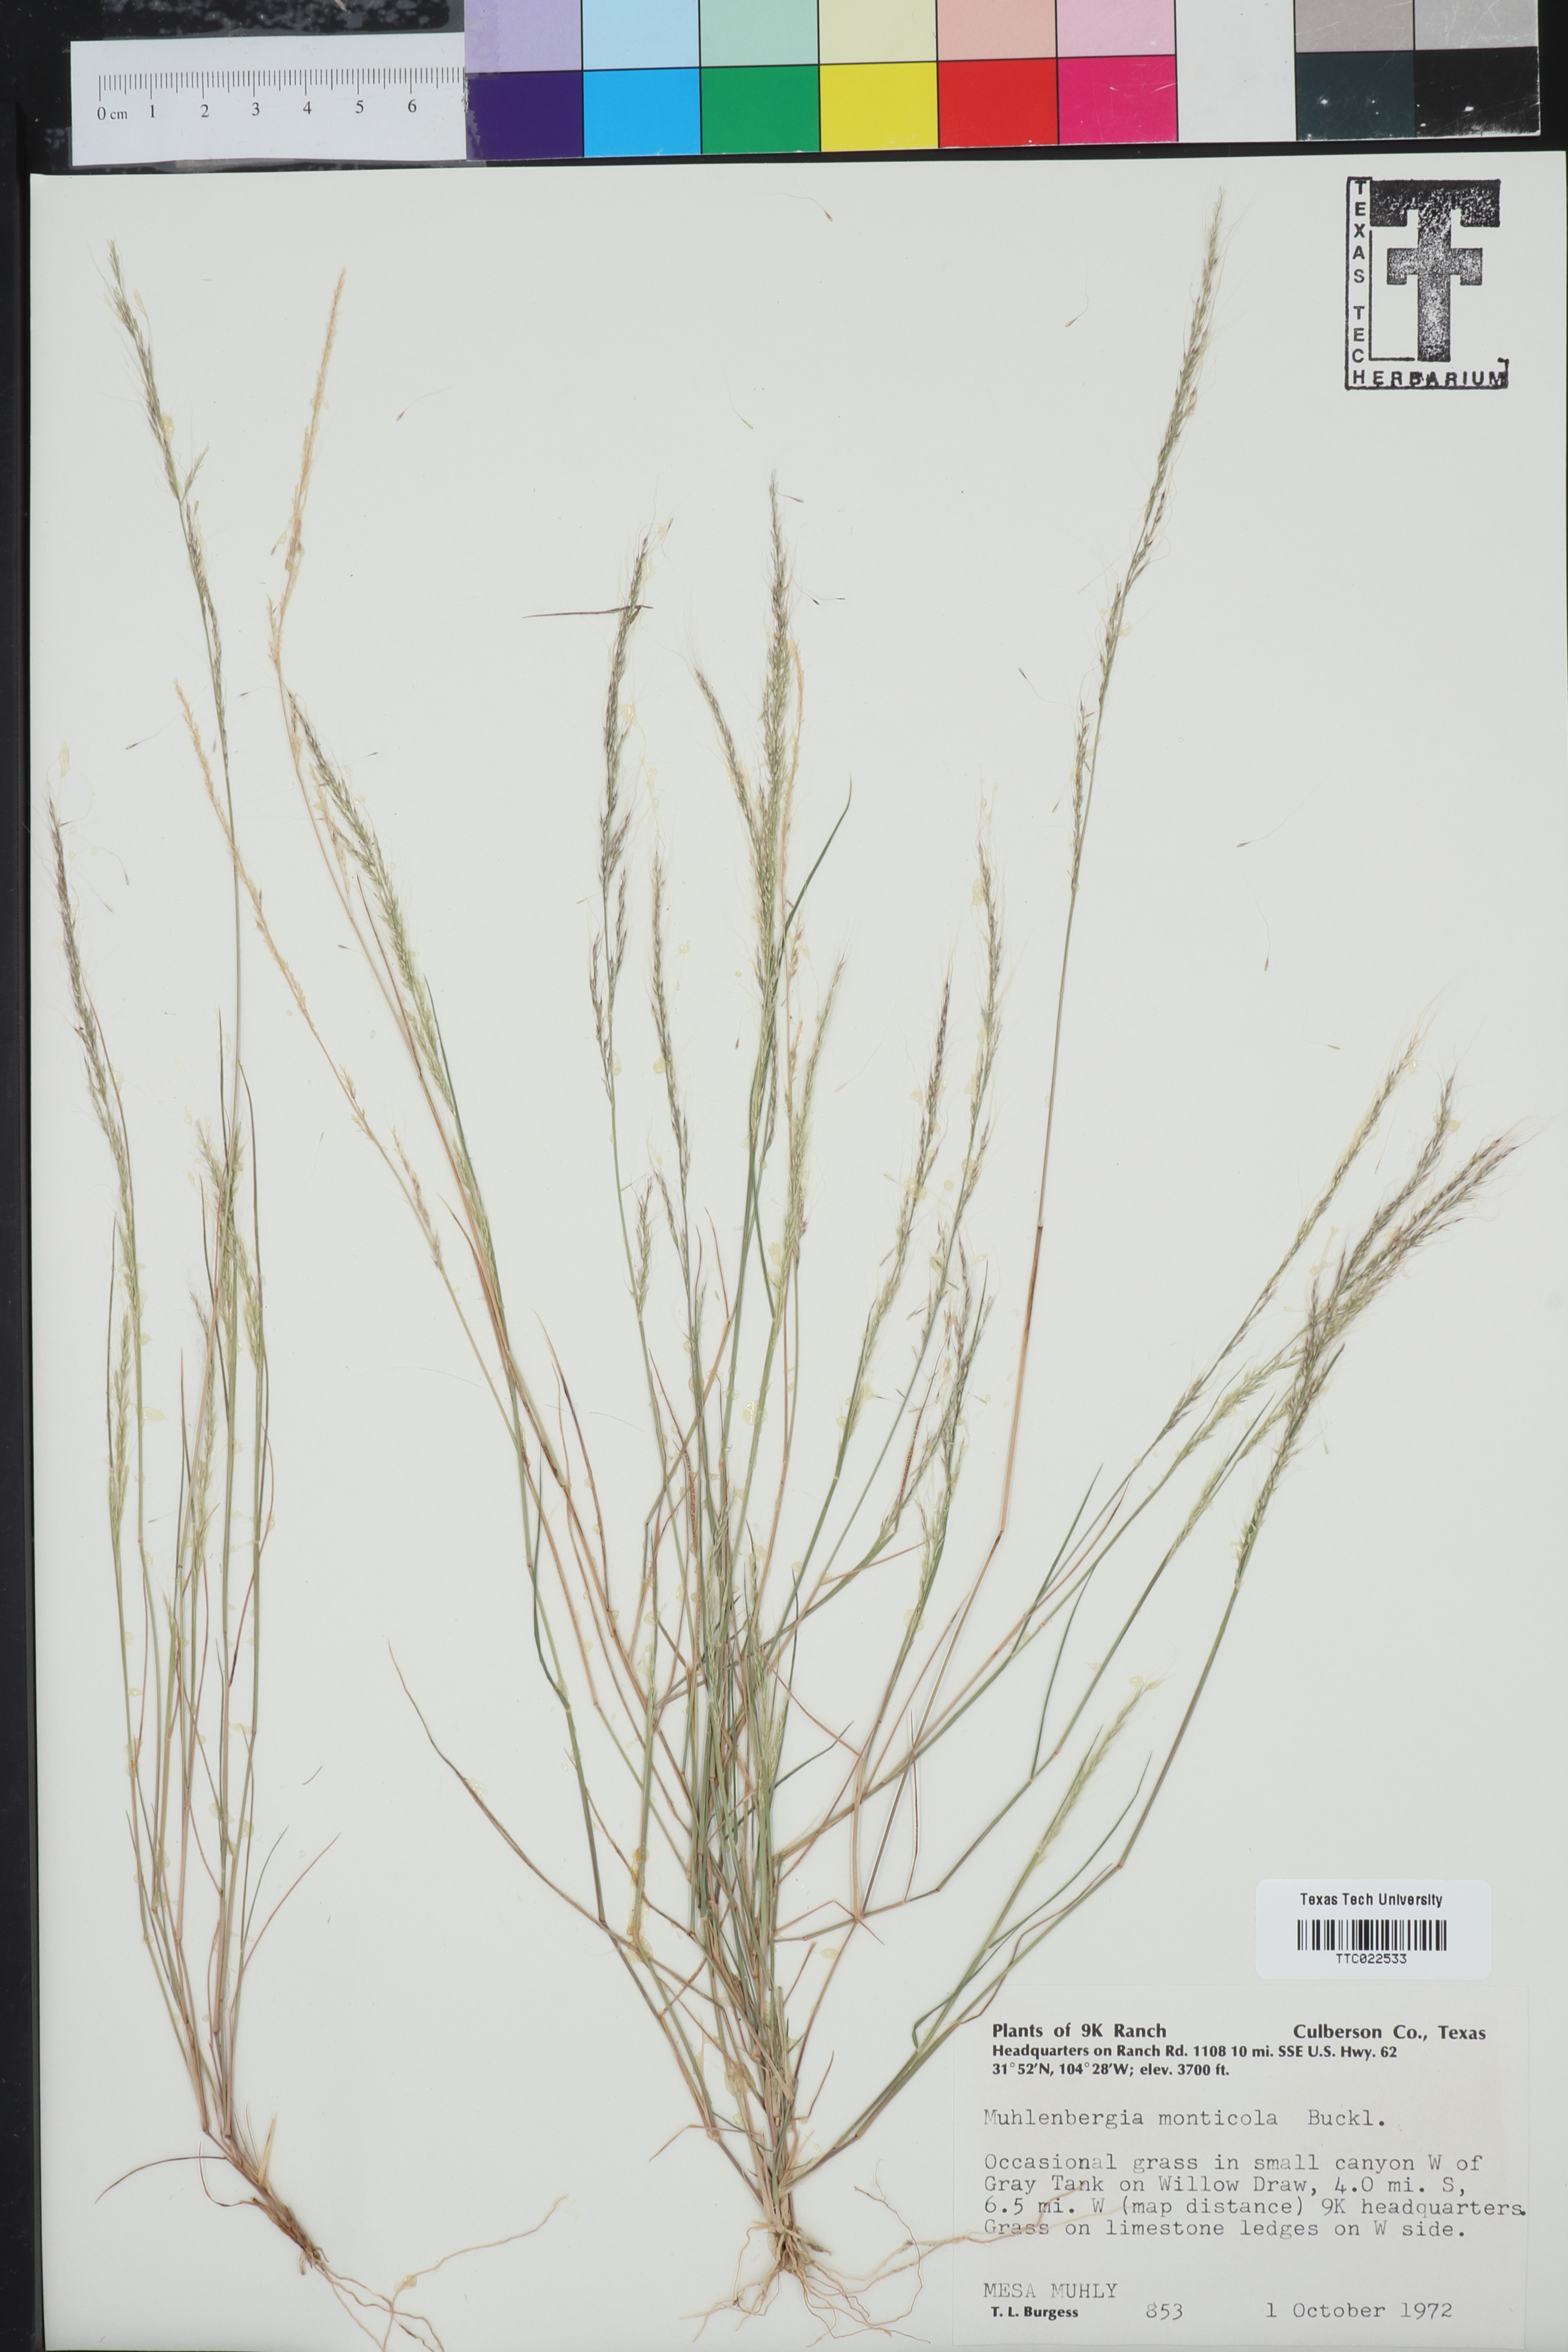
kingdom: Plantae
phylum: Tracheophyta
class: Liliopsida
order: Poales
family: Poaceae
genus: Muhlenbergia
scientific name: Muhlenbergia tenuifolia
